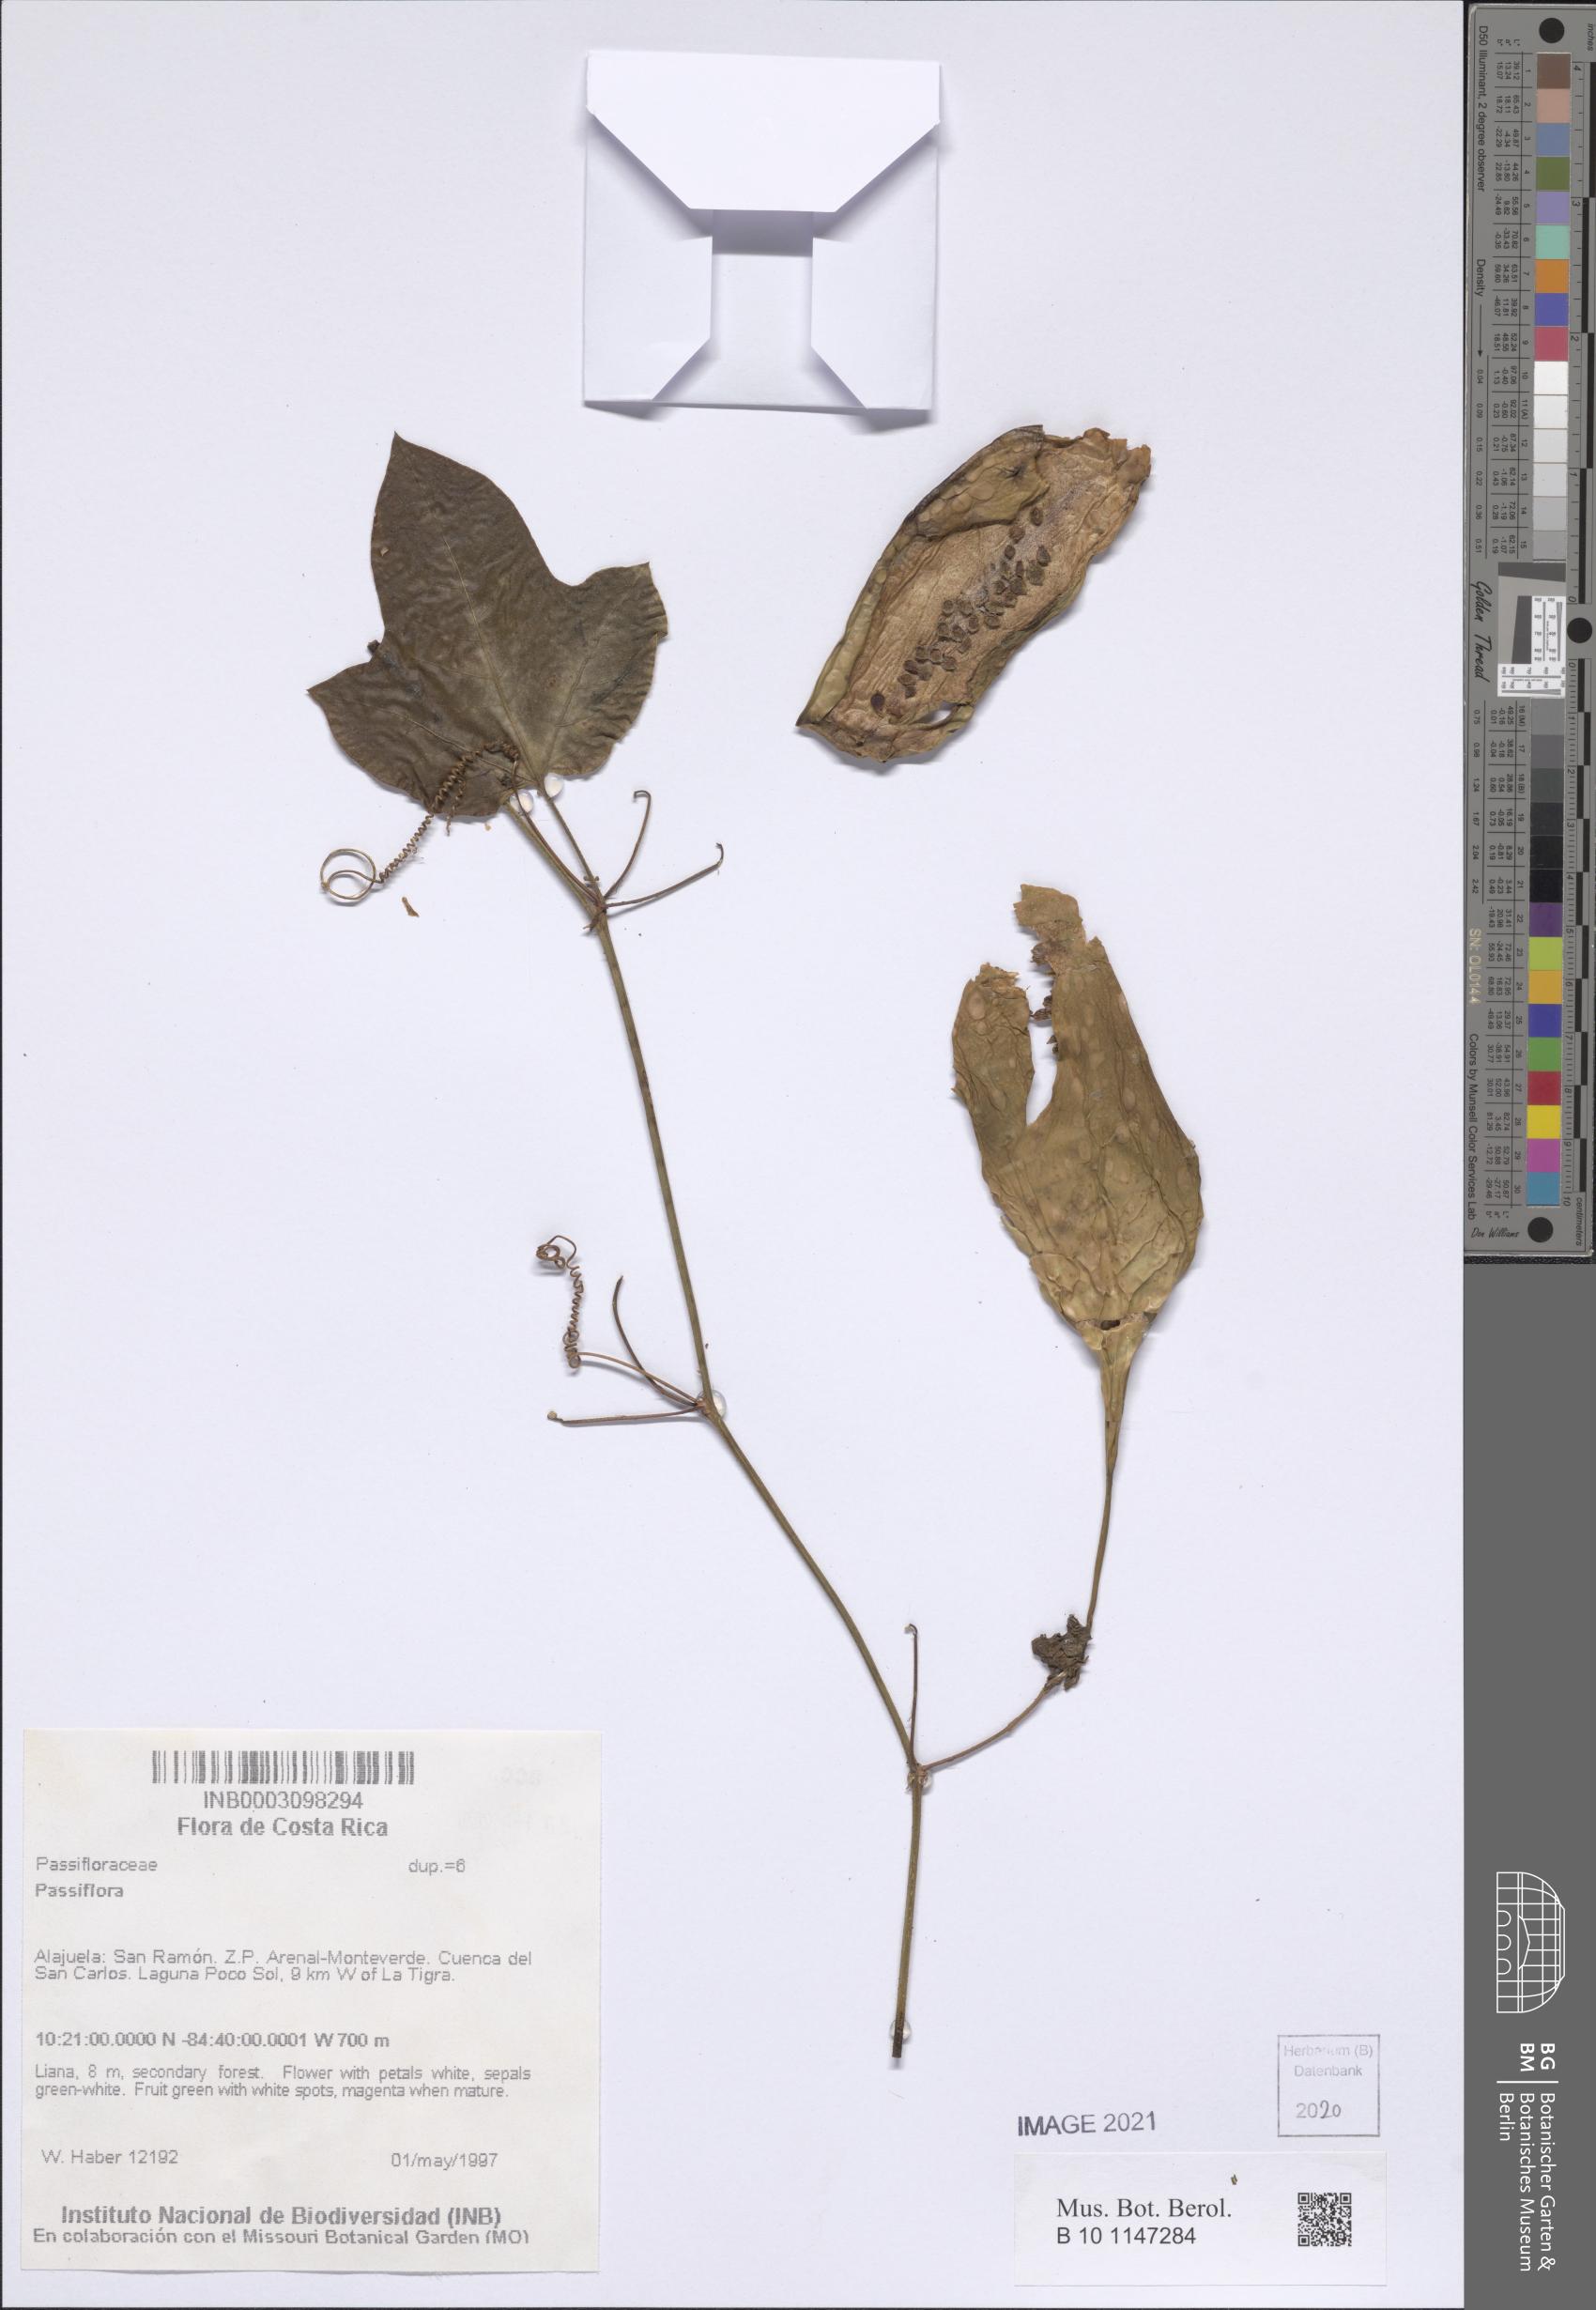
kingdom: Plantae
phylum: Tracheophyta
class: Magnoliopsida
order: Malpighiales
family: Passifloraceae
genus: Passiflora
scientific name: Passiflora
